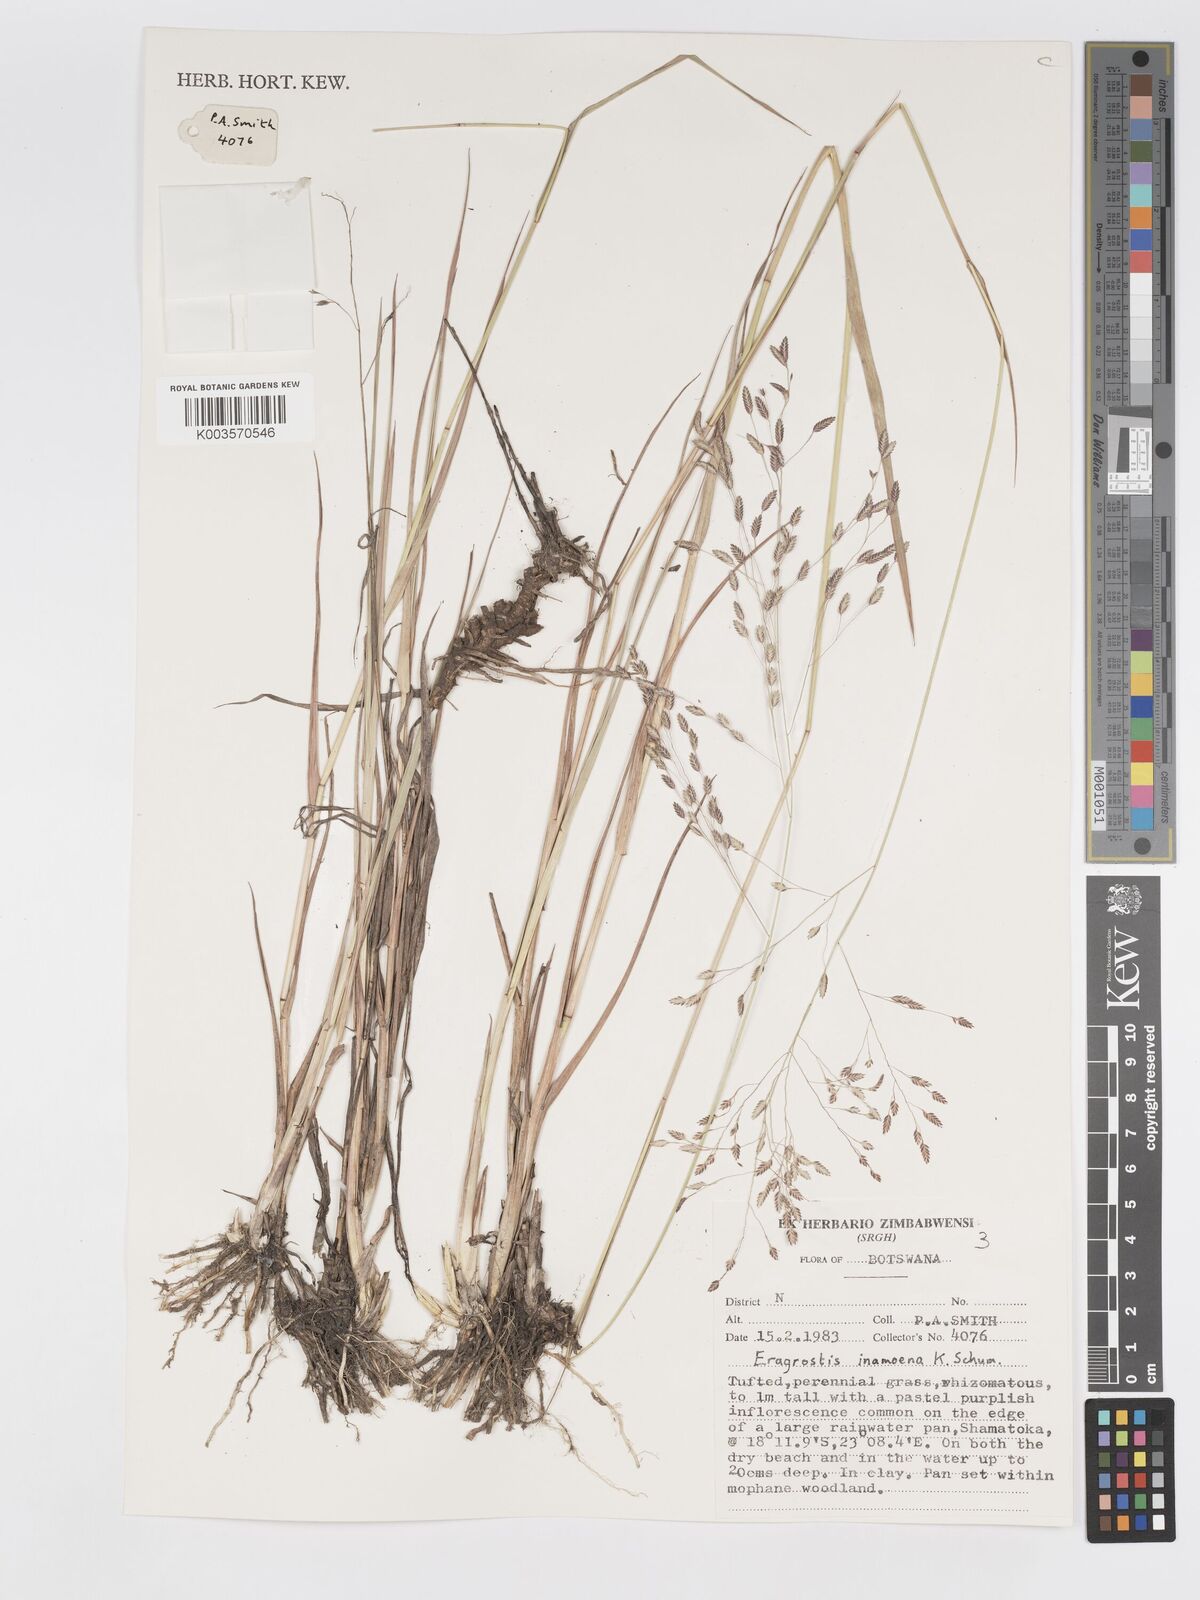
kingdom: Plantae
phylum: Tracheophyta
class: Liliopsida
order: Poales
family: Poaceae
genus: Eragrostis
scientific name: Eragrostis inamoena
